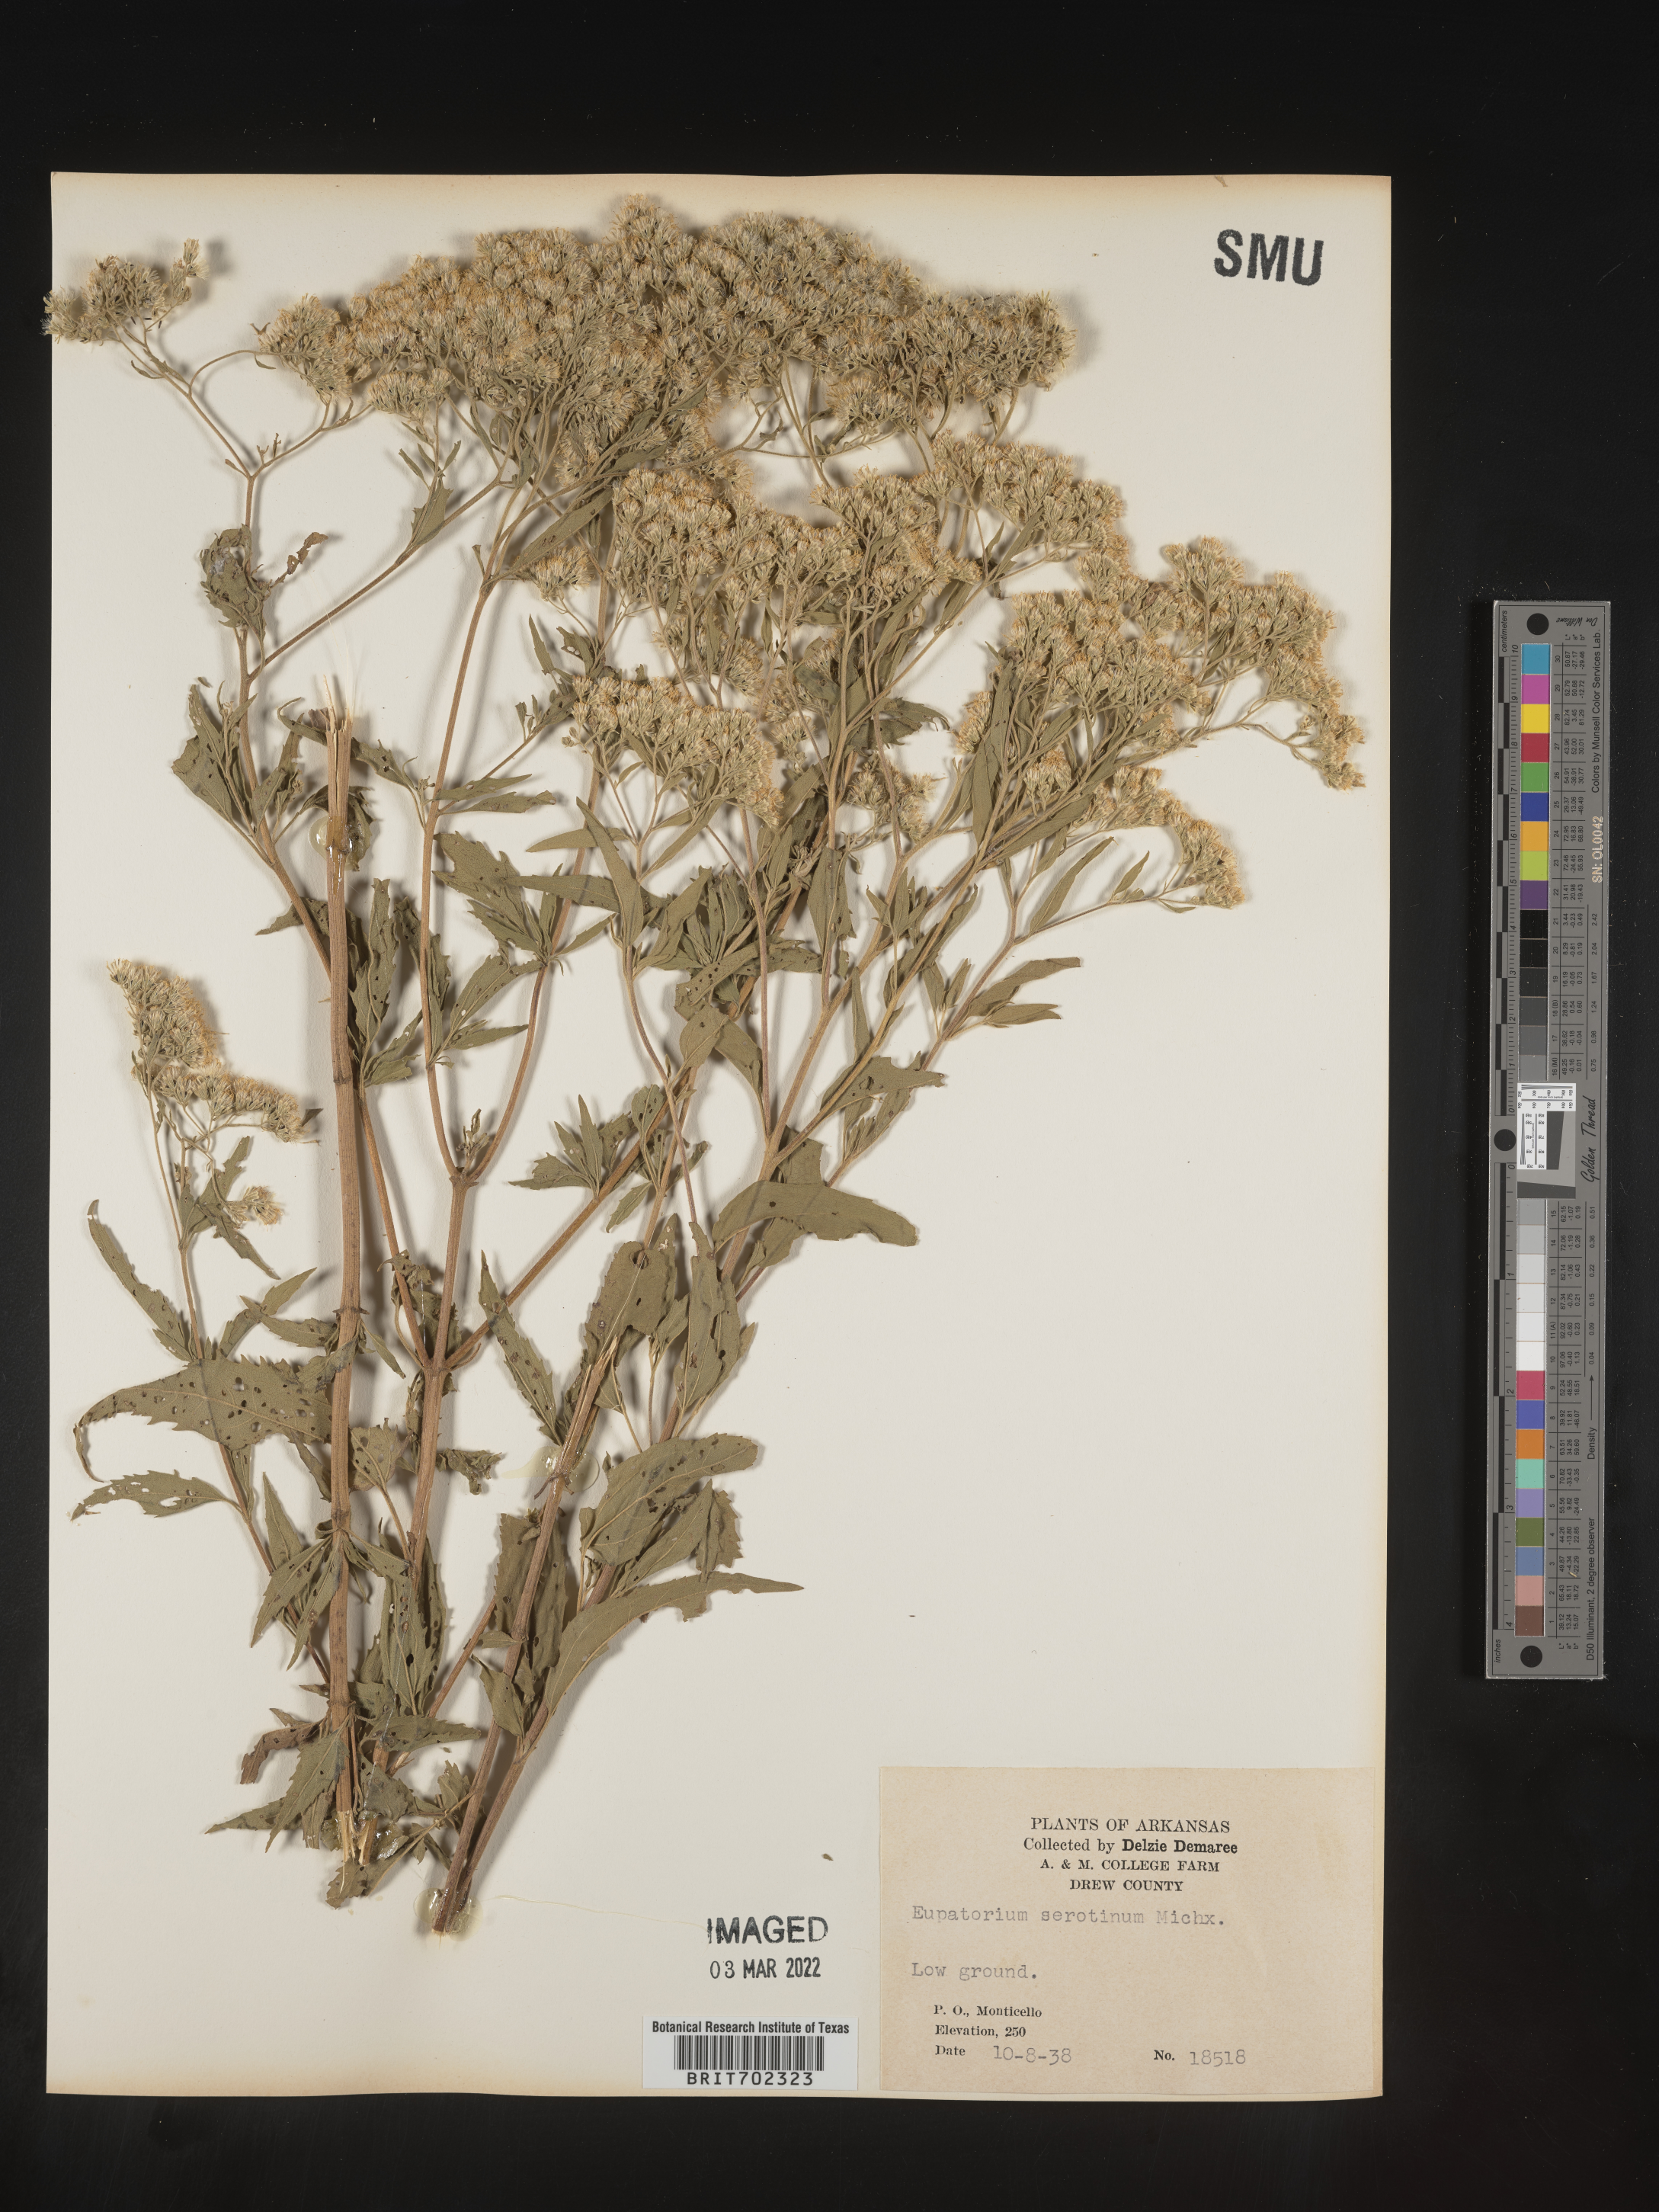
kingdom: Plantae
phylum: Tracheophyta
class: Magnoliopsida
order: Asterales
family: Asteraceae
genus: Eupatorium
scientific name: Eupatorium serotinum
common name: Late boneset
